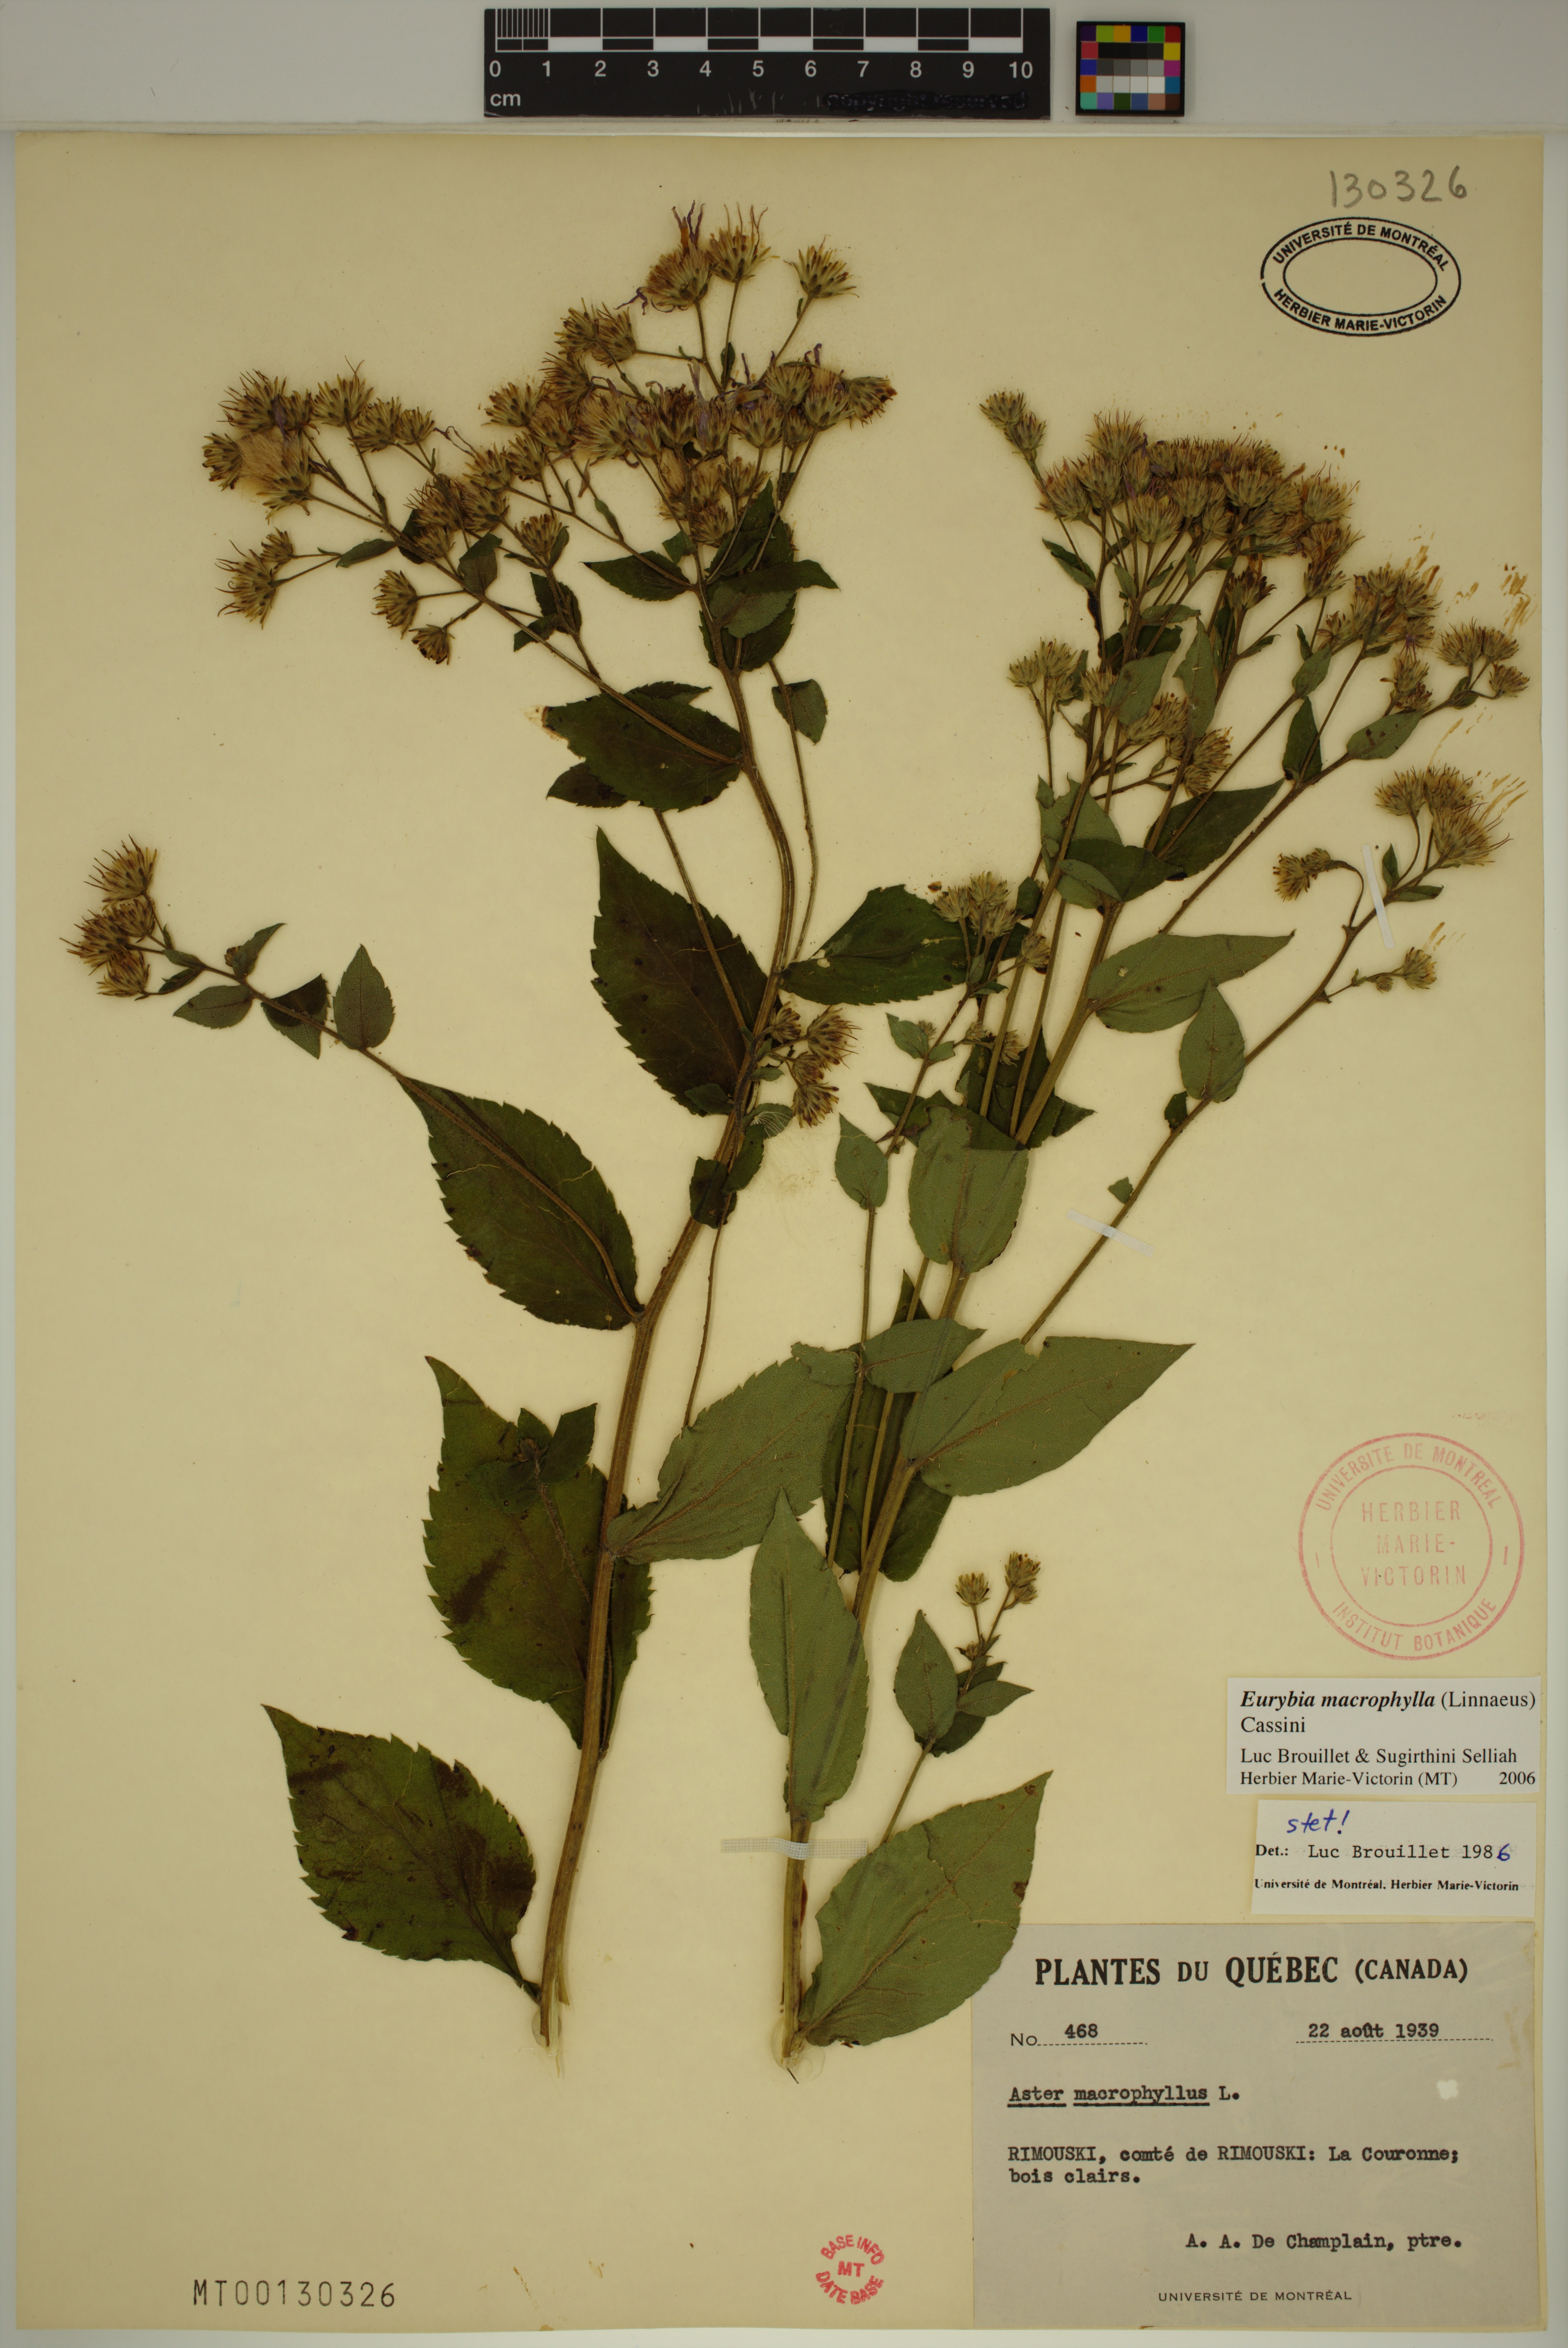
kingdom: Plantae
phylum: Tracheophyta
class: Magnoliopsida
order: Asterales
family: Asteraceae
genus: Eurybia
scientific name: Eurybia macrophylla
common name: Big-leaved aster
